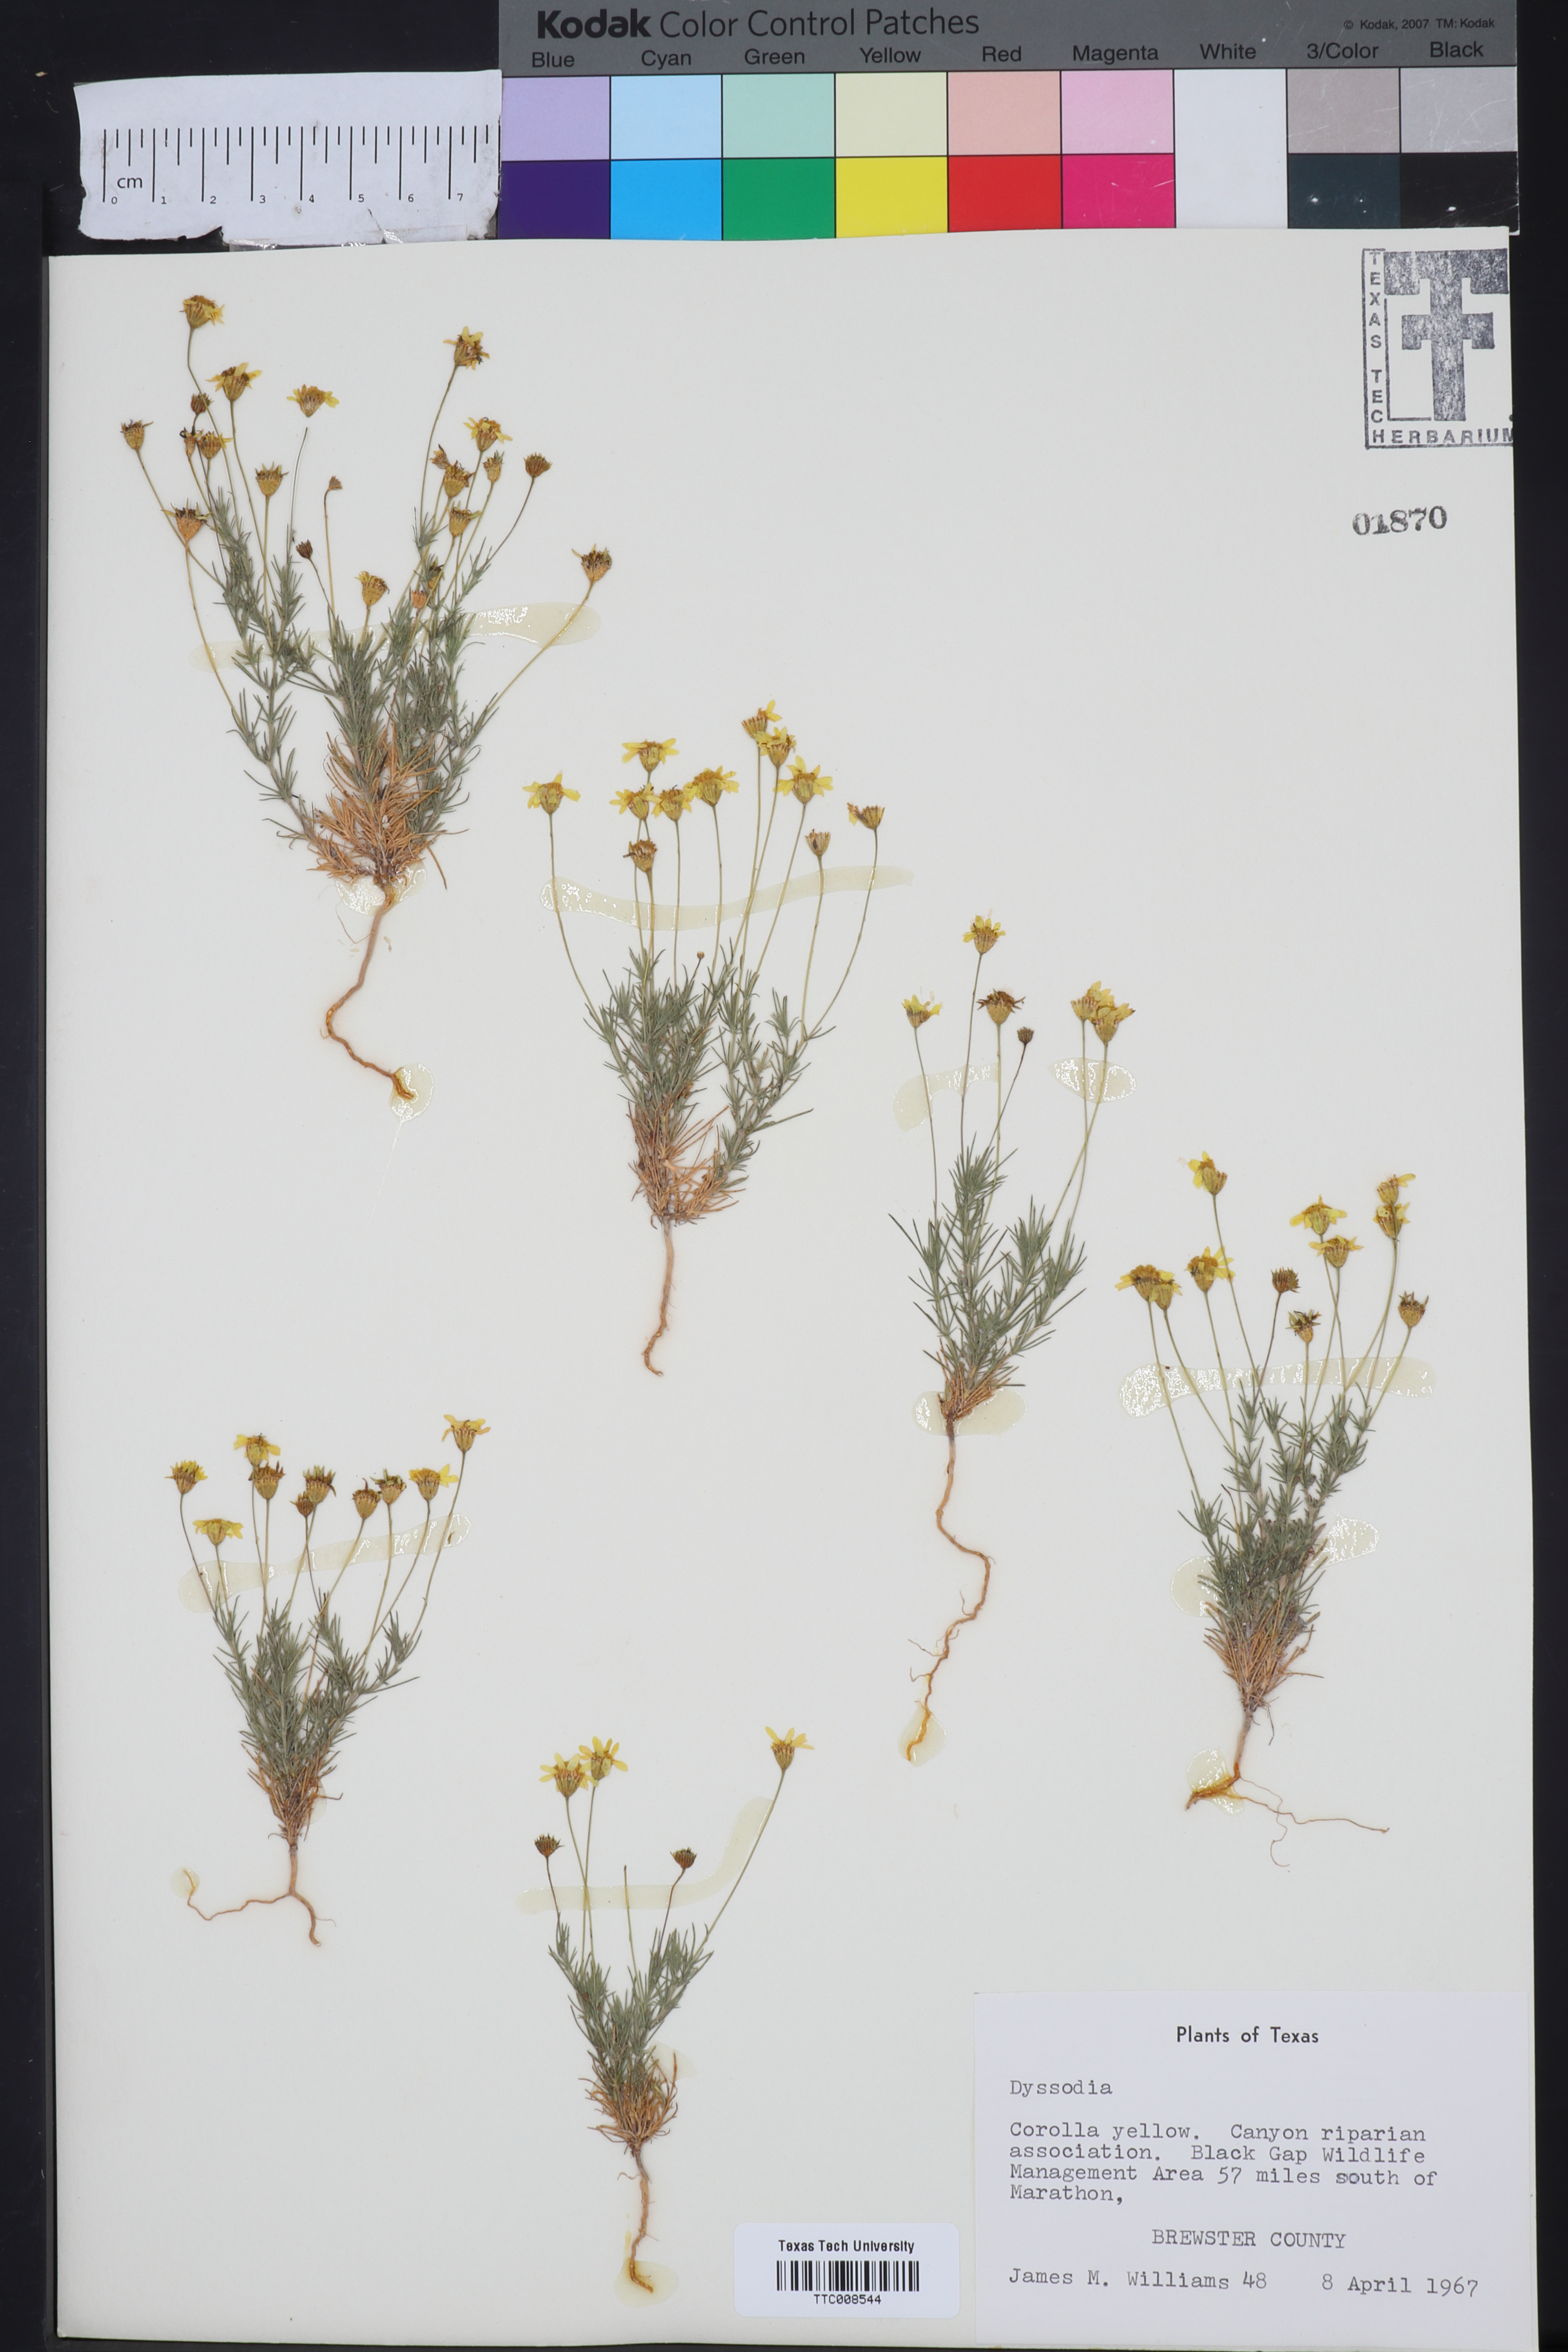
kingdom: Plantae
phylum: Tracheophyta
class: Magnoliopsida
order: Asterales
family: Asteraceae
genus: Dyssodia
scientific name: Dyssodia
